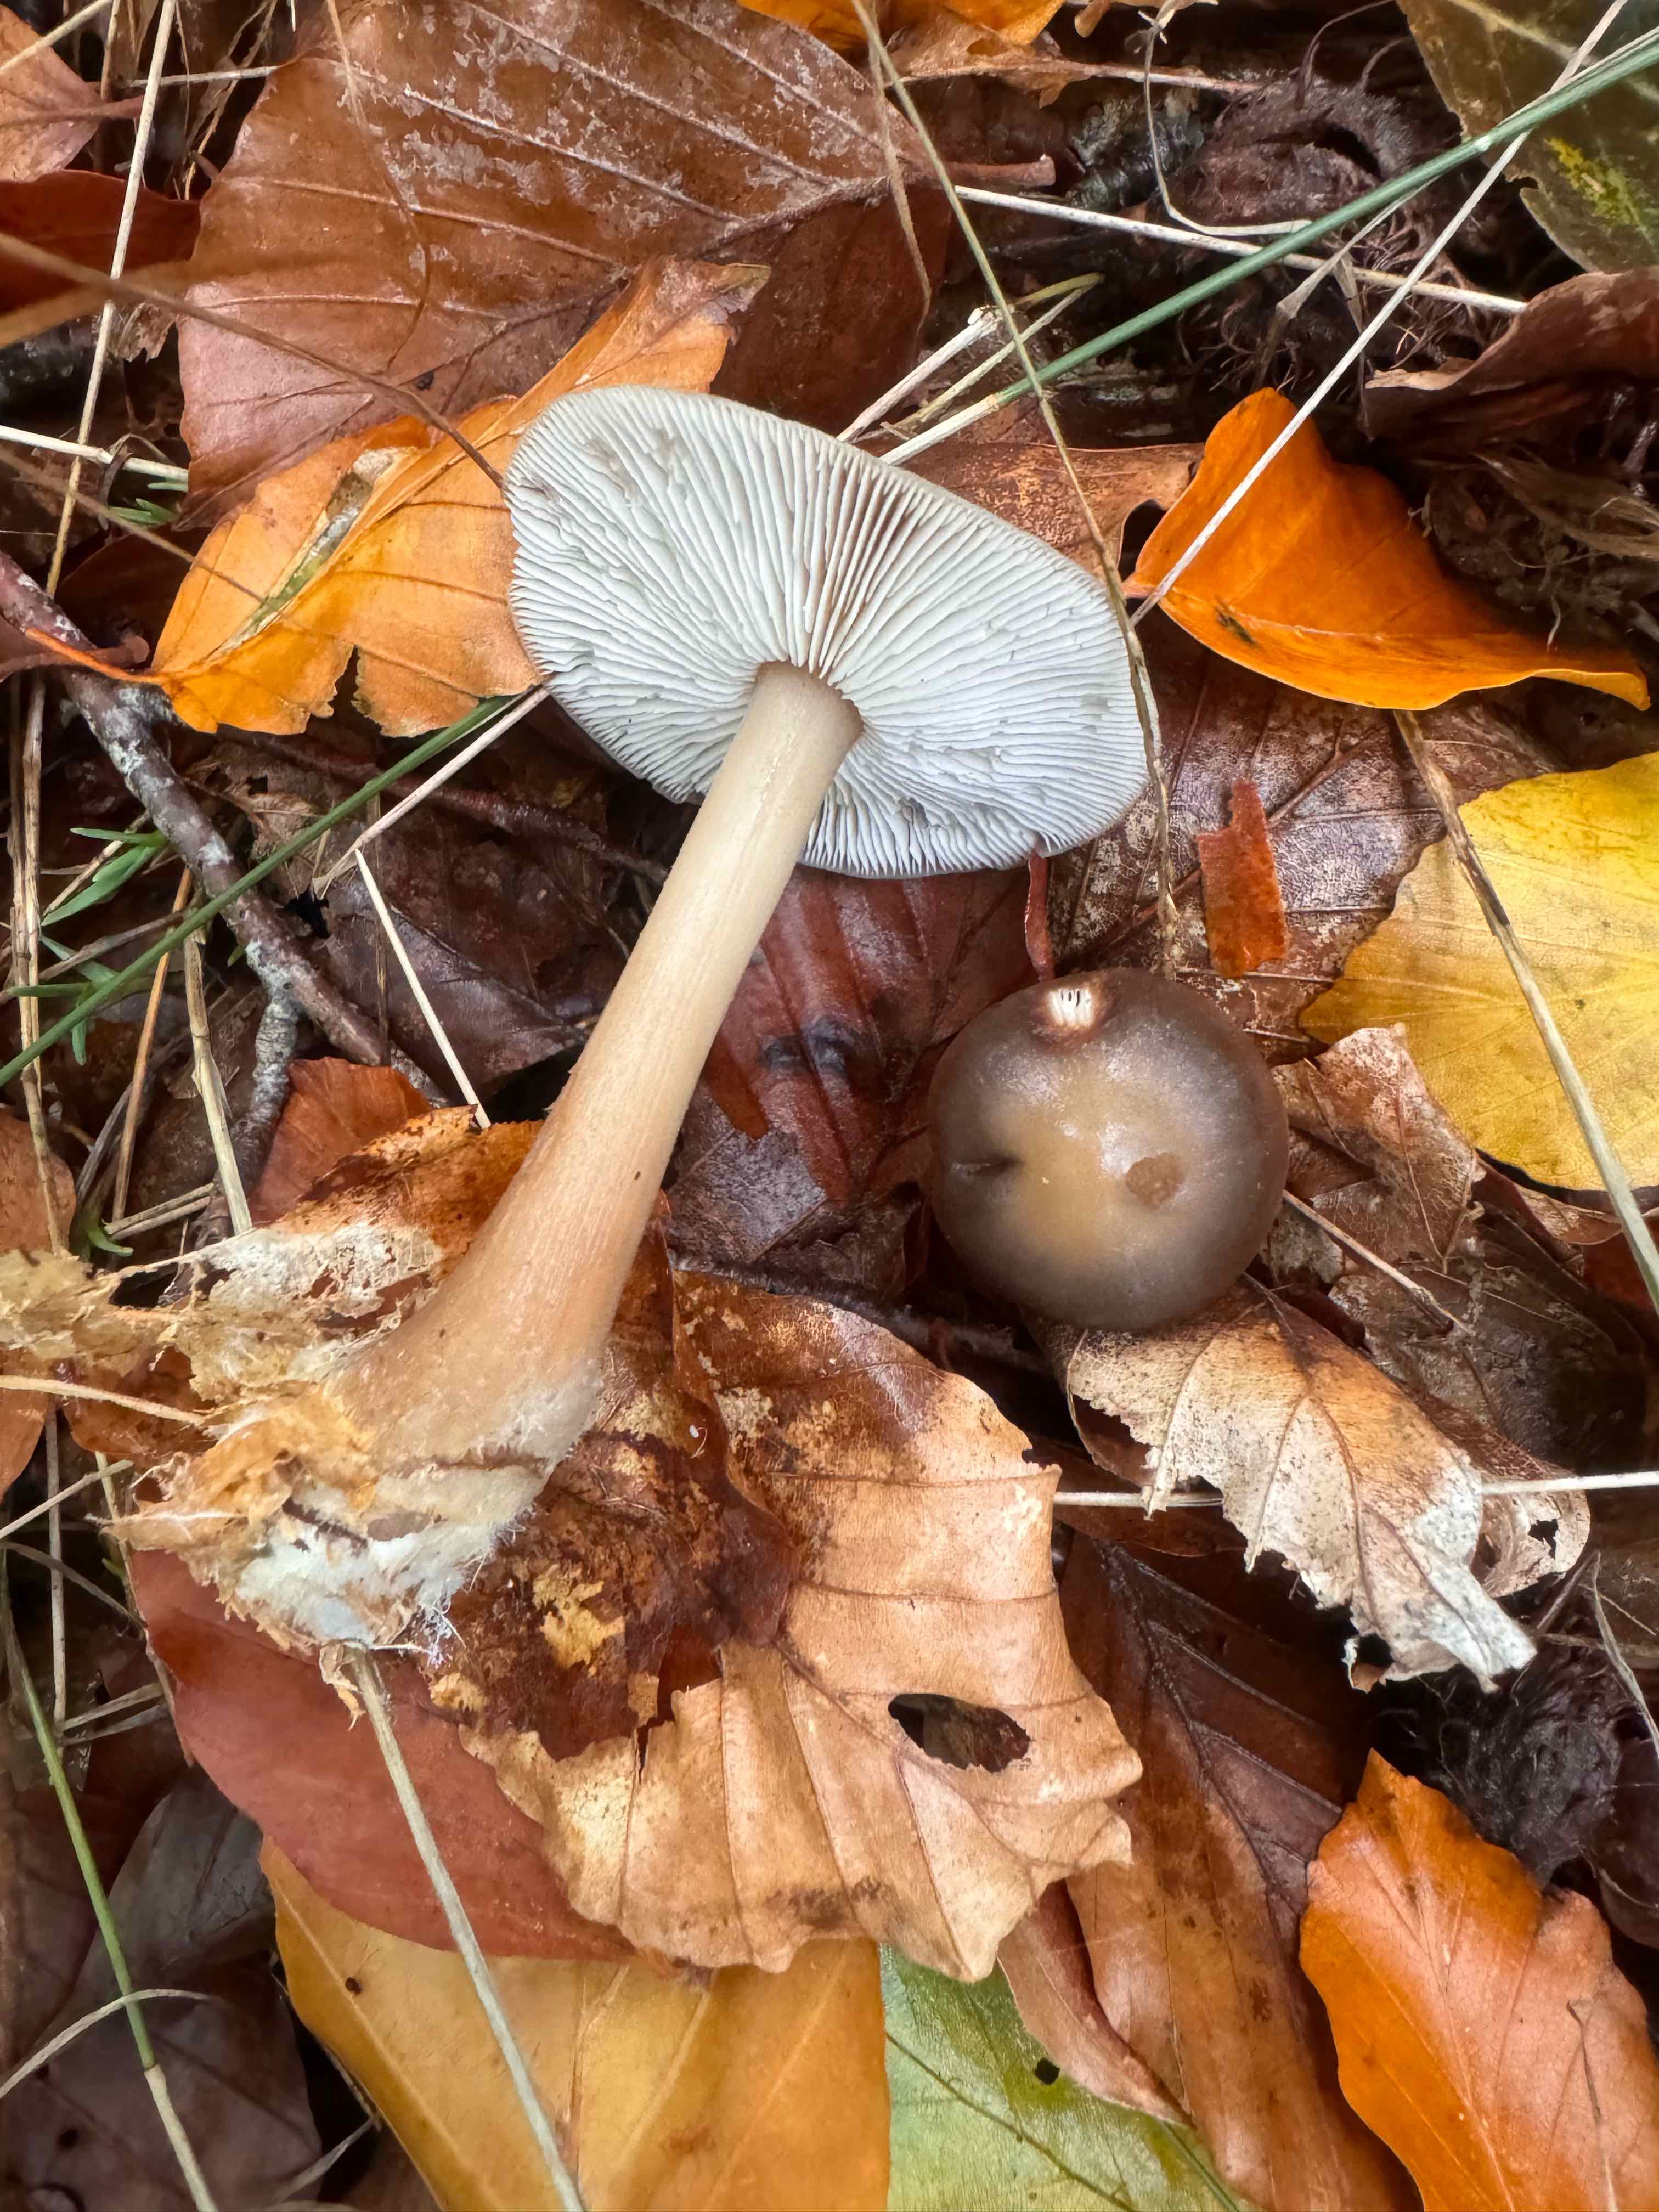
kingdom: Fungi
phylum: Basidiomycota
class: Agaricomycetes
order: Agaricales
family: Omphalotaceae
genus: Rhodocollybia
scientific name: Rhodocollybia asema
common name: horngrå fladhat
